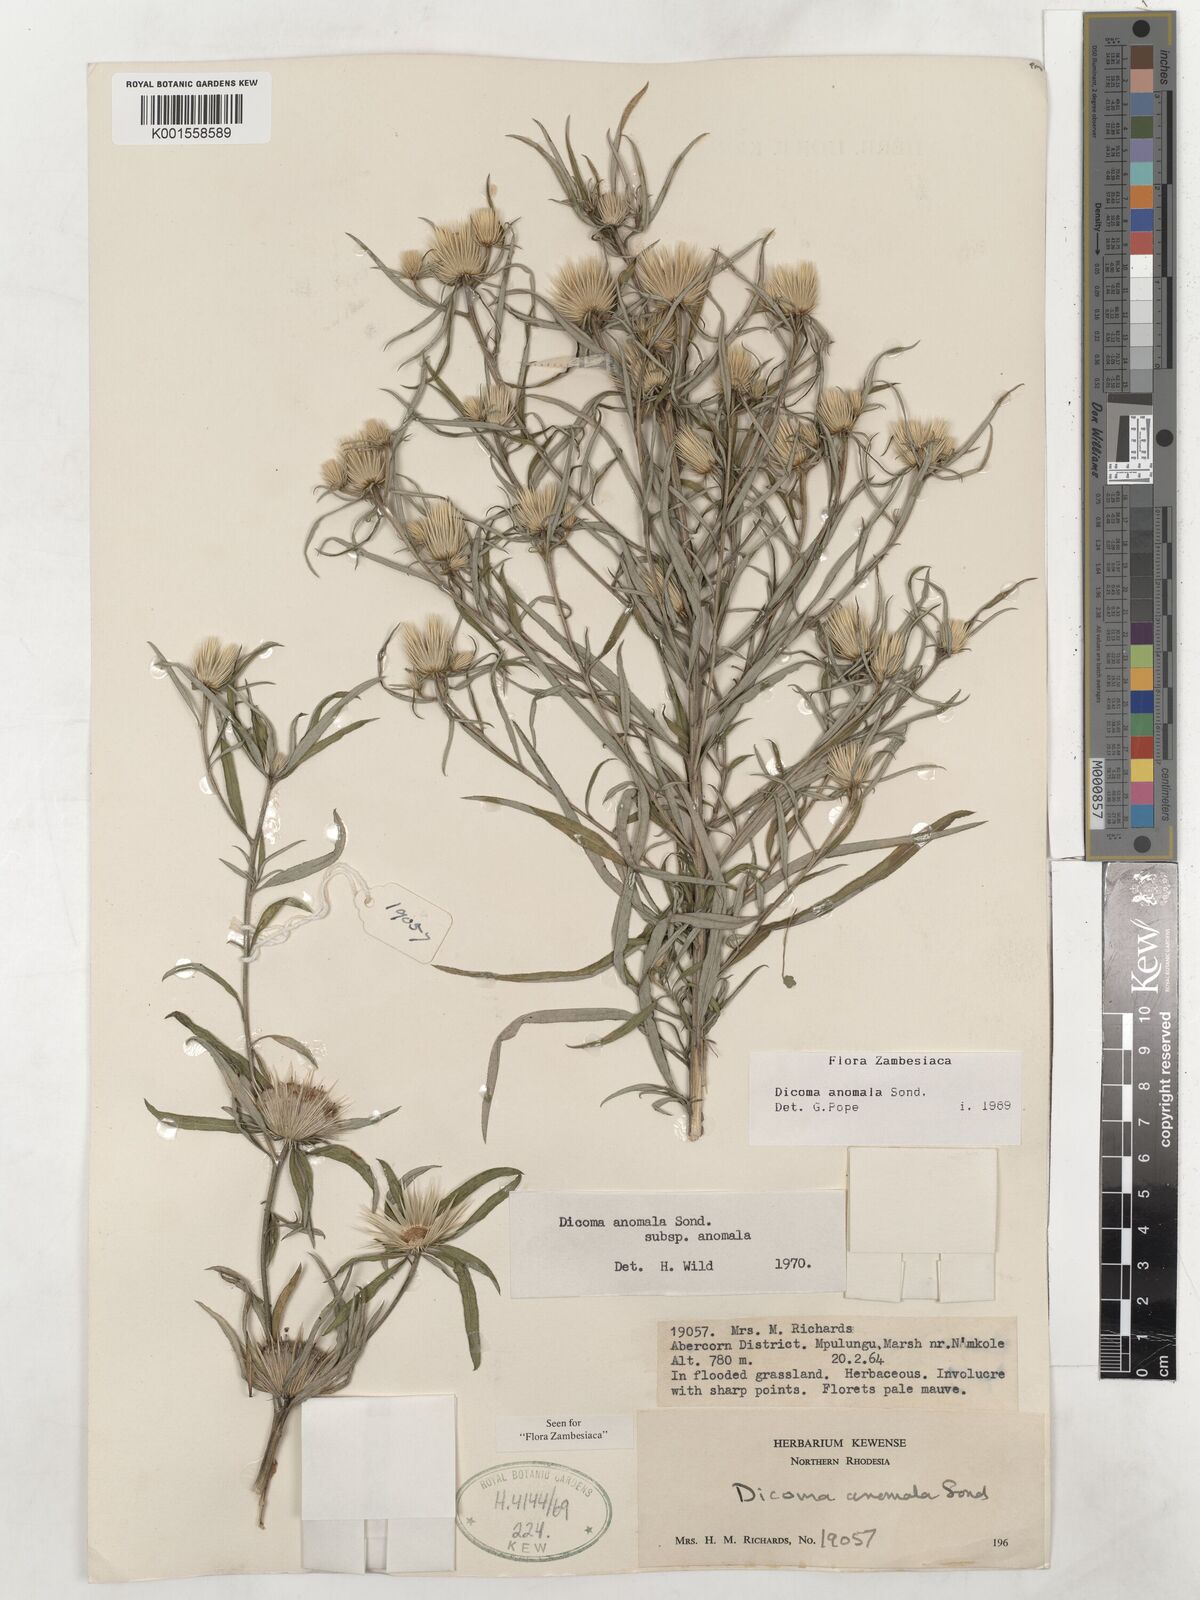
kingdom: Plantae
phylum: Tracheophyta
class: Magnoliopsida
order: Asterales
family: Asteraceae
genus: Dicoma
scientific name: Dicoma anomala
